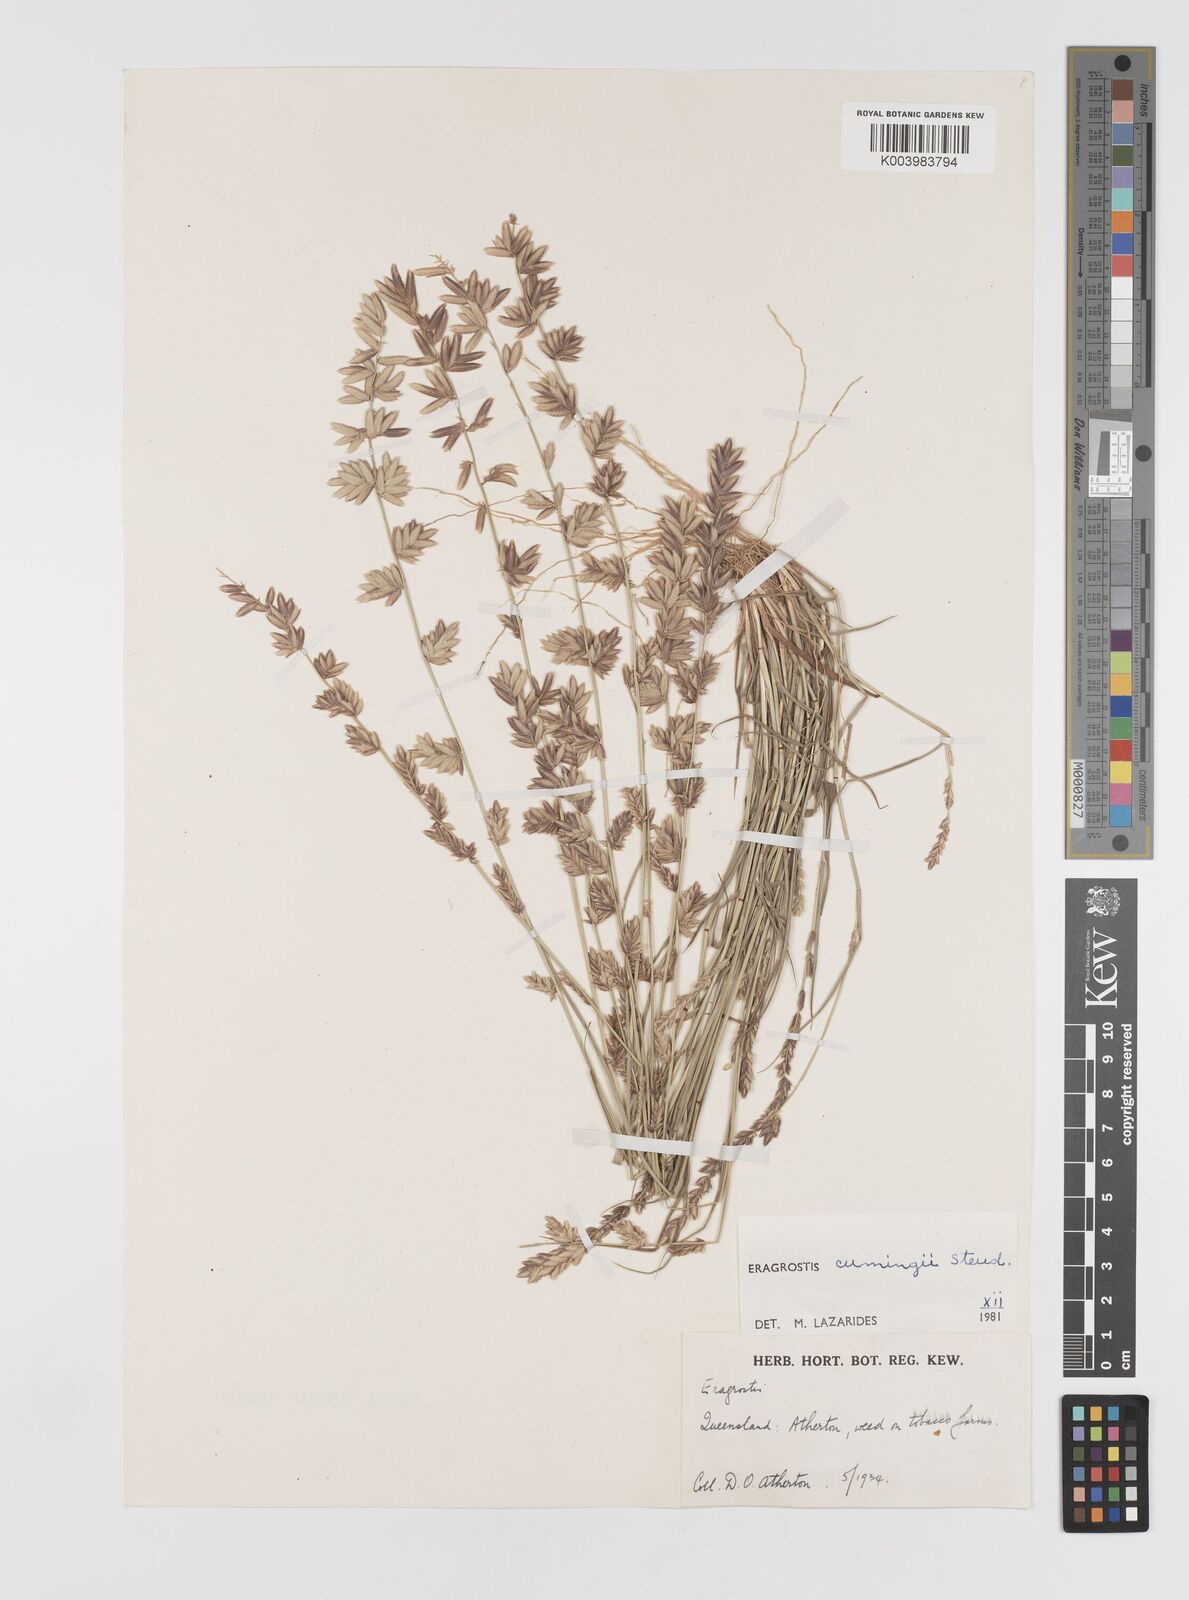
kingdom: Plantae
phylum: Tracheophyta
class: Liliopsida
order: Poales
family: Poaceae
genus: Eragrostis
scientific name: Eragrostis cumingii
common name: Cuming's lovegrass
